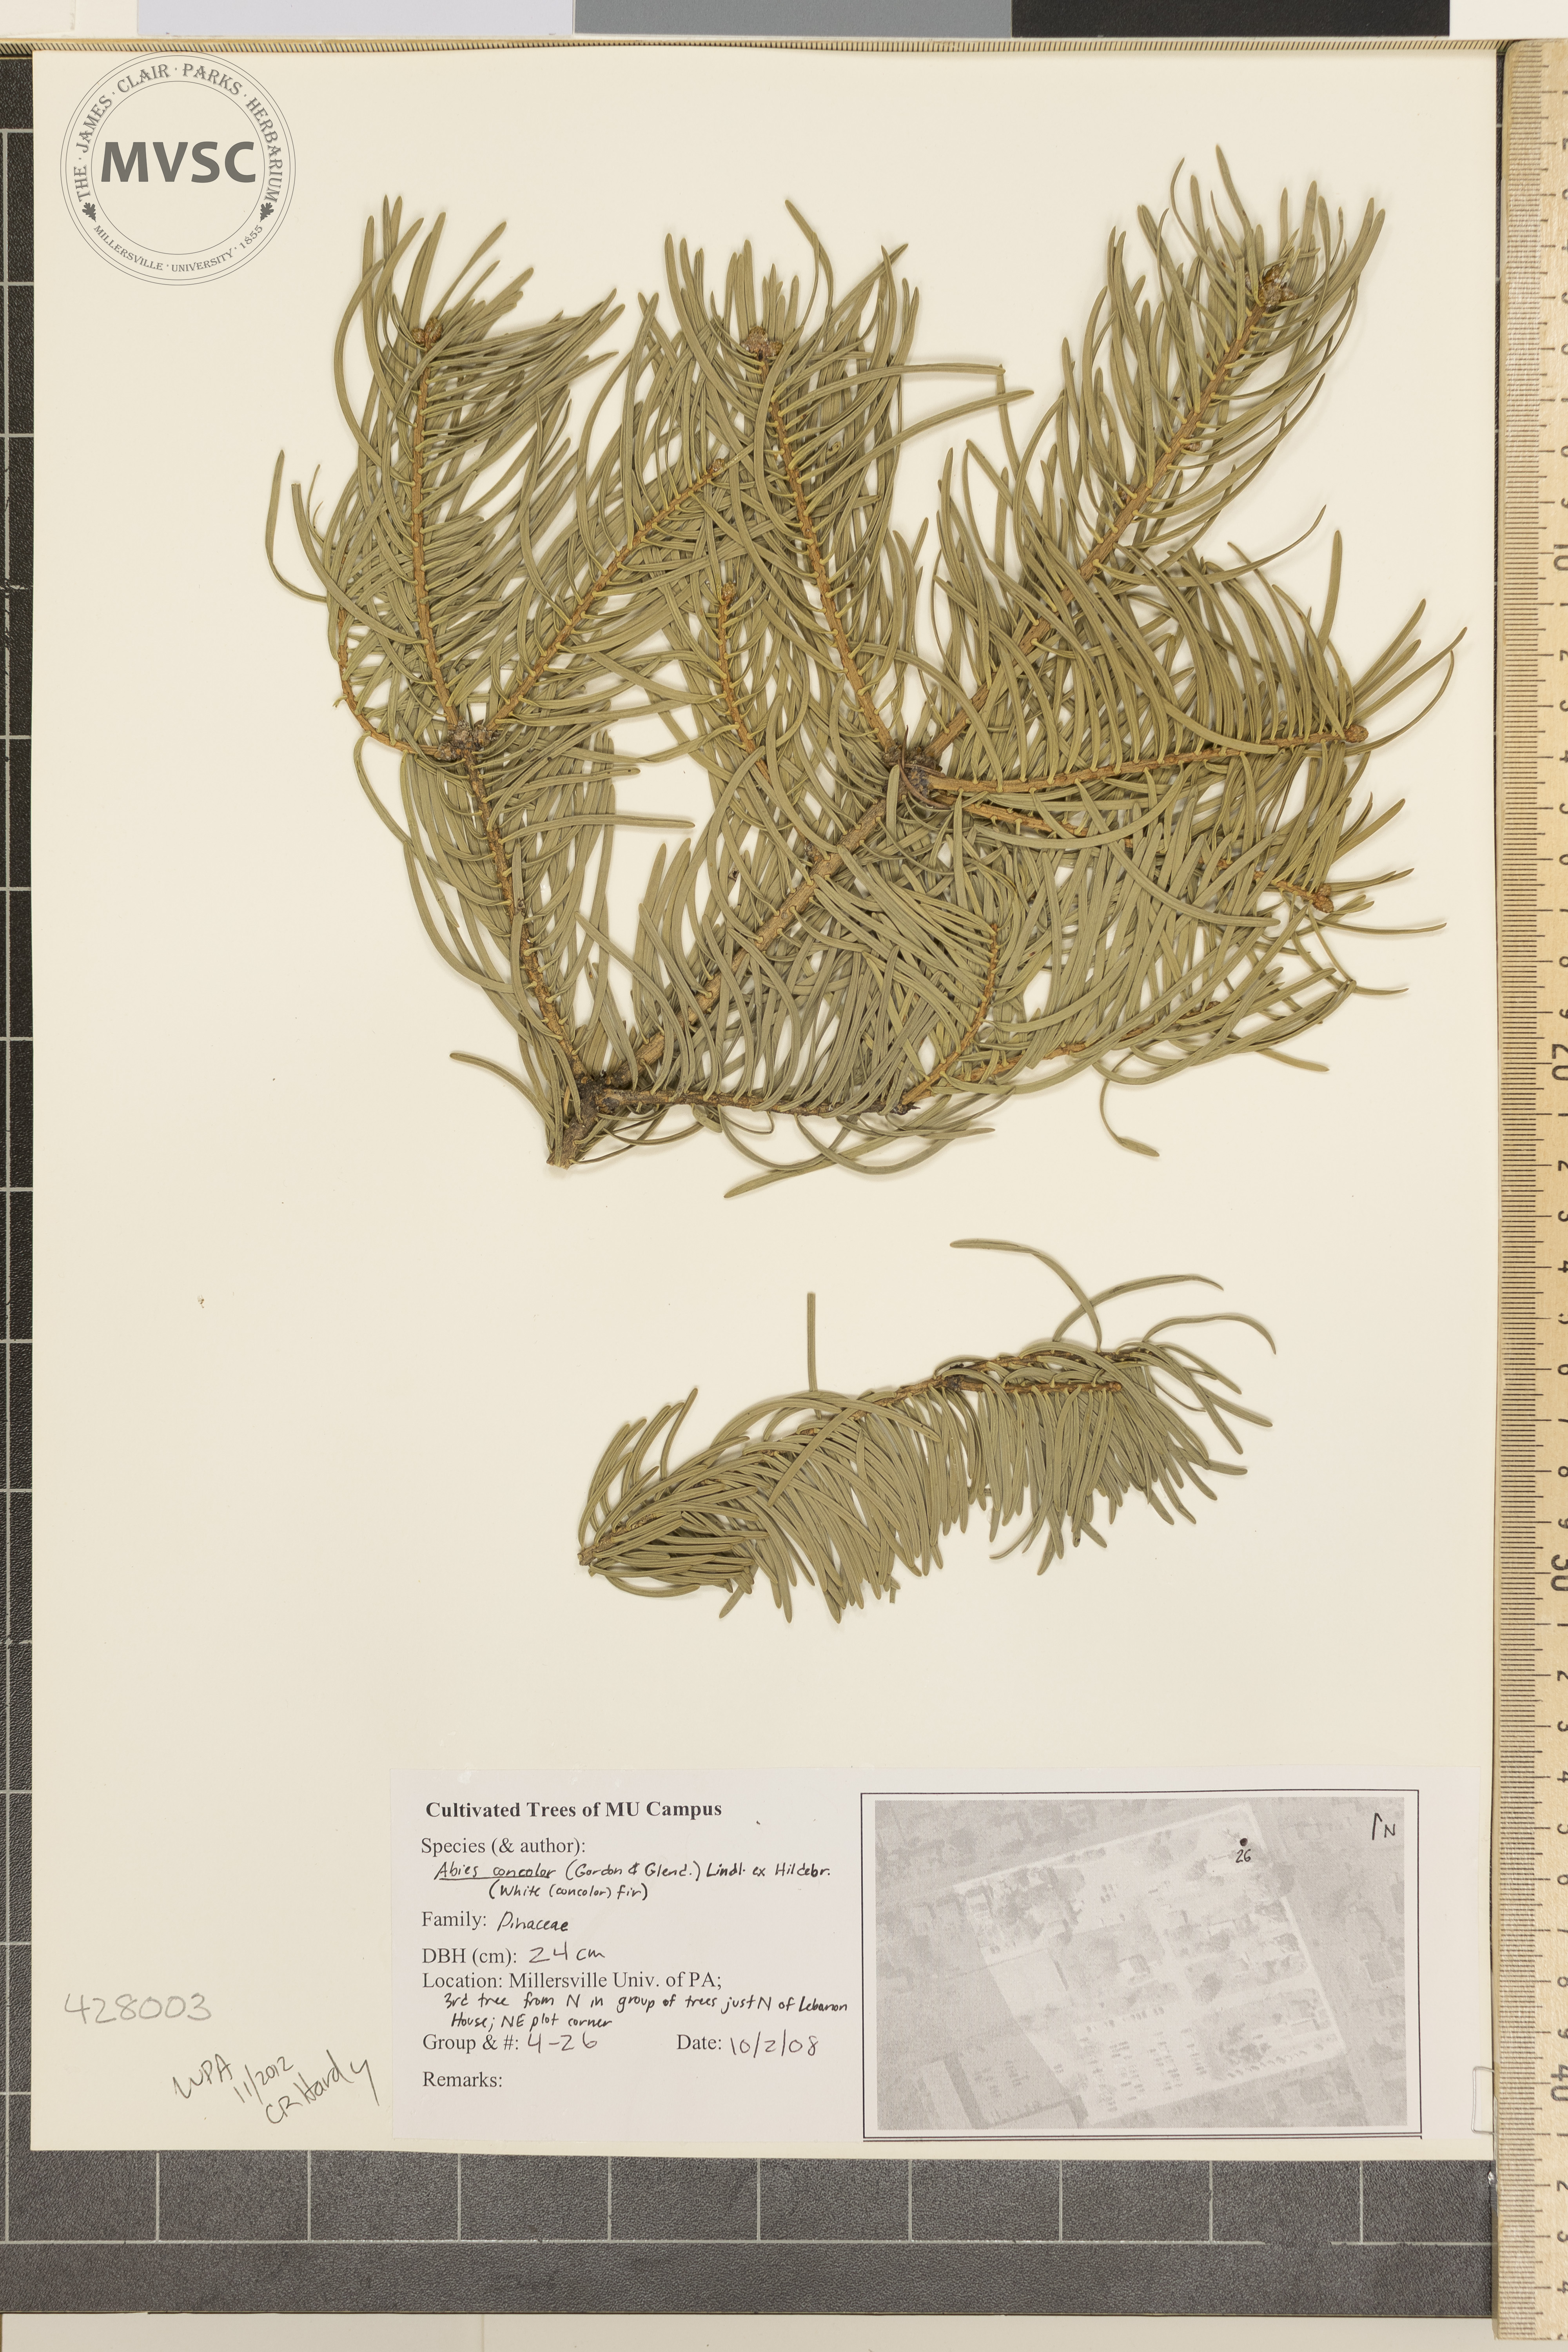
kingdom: Plantae
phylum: Tracheophyta
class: Pinopsida
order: Pinales
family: Pinaceae
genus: Abies
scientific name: Abies concolor
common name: White Fir
